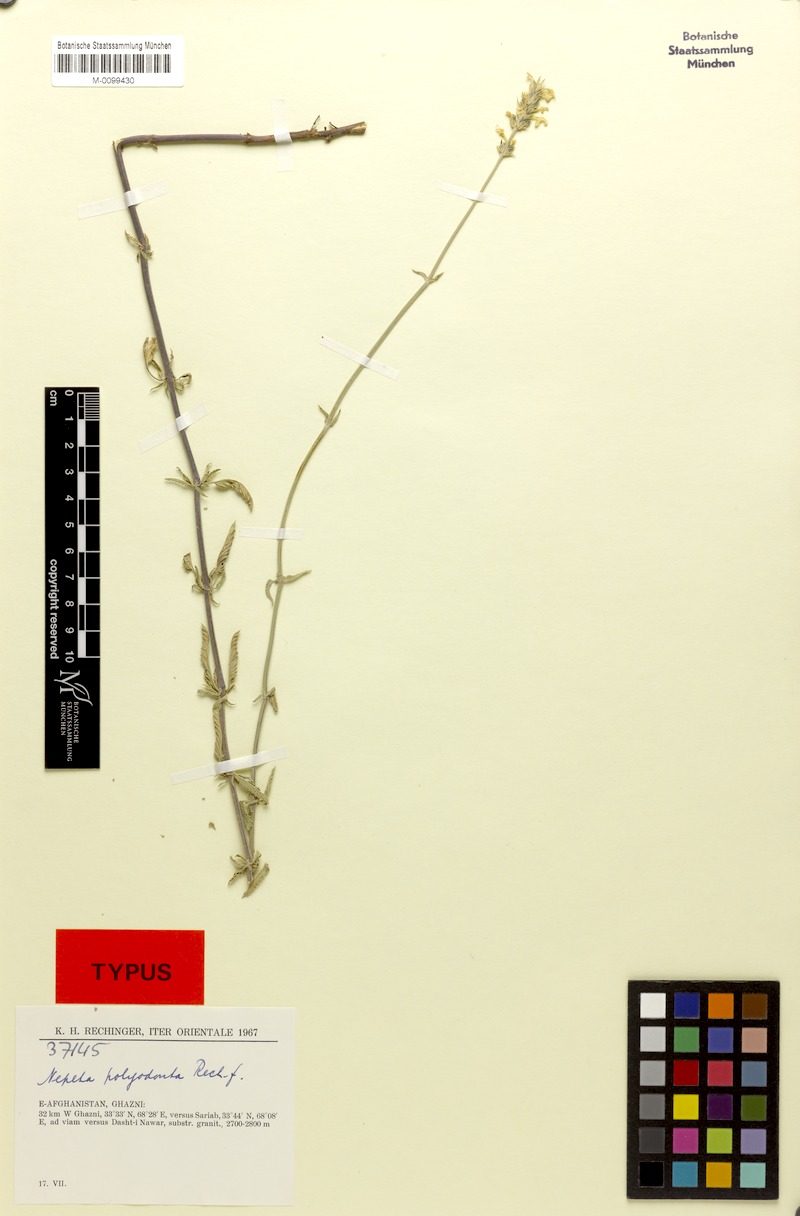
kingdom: Plantae
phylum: Tracheophyta
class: Magnoliopsida
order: Lamiales
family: Lamiaceae
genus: Nepeta
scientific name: Nepeta polyodonta
